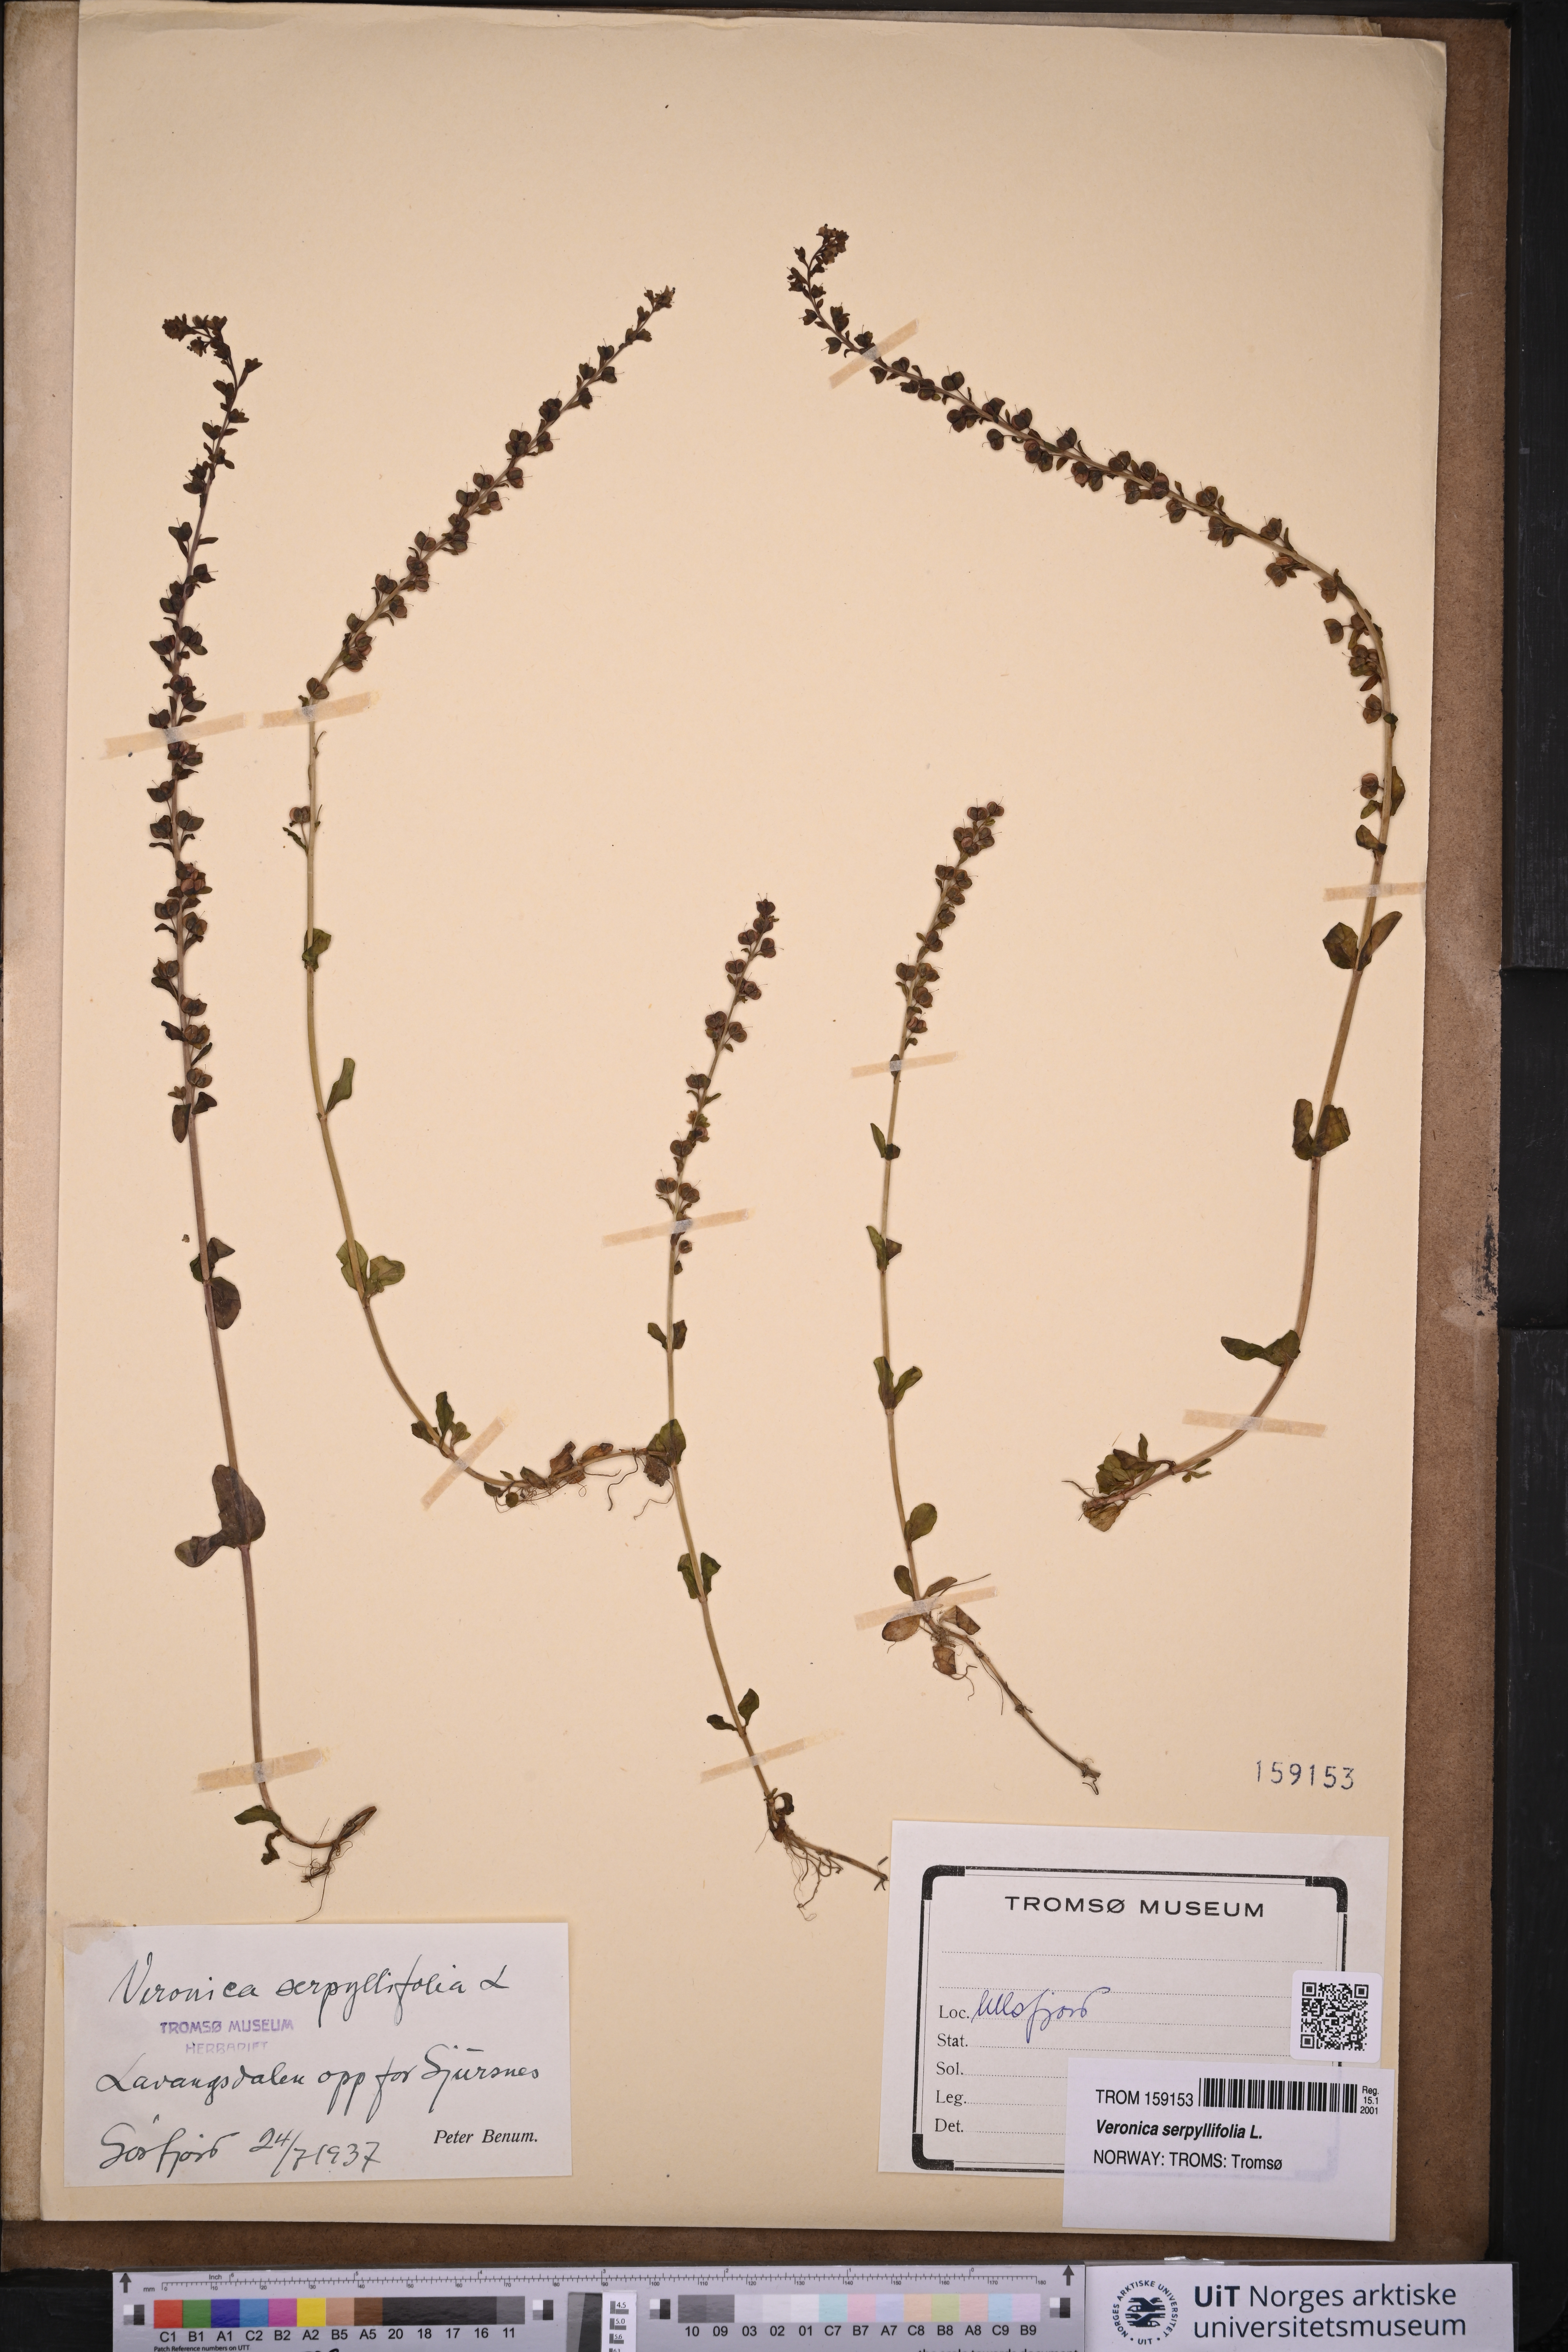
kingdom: Plantae
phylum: Tracheophyta
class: Magnoliopsida
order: Lamiales
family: Plantaginaceae
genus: Veronica
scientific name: Veronica serpyllifolia
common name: Thyme-leaved speedwell
